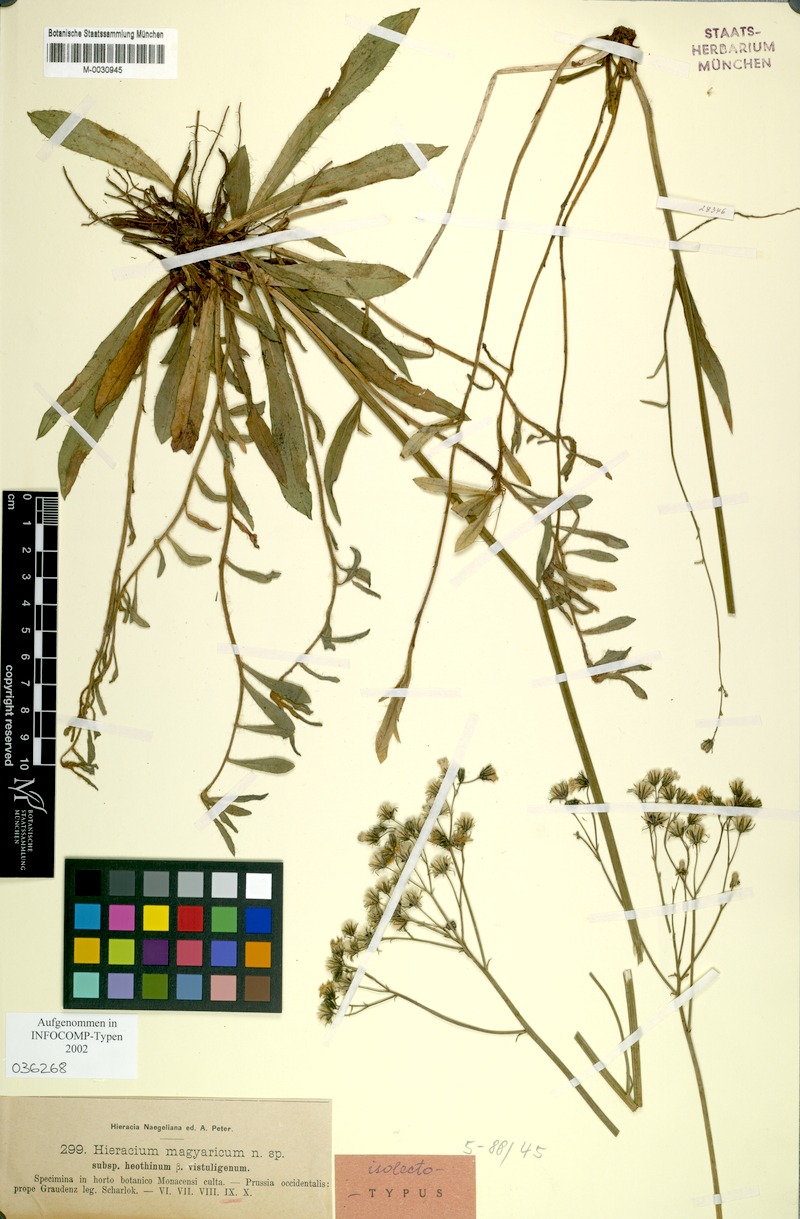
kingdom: Plantae
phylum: Tracheophyta
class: Magnoliopsida
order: Asterales
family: Asteraceae
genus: Pilosella
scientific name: Pilosella bauhini
